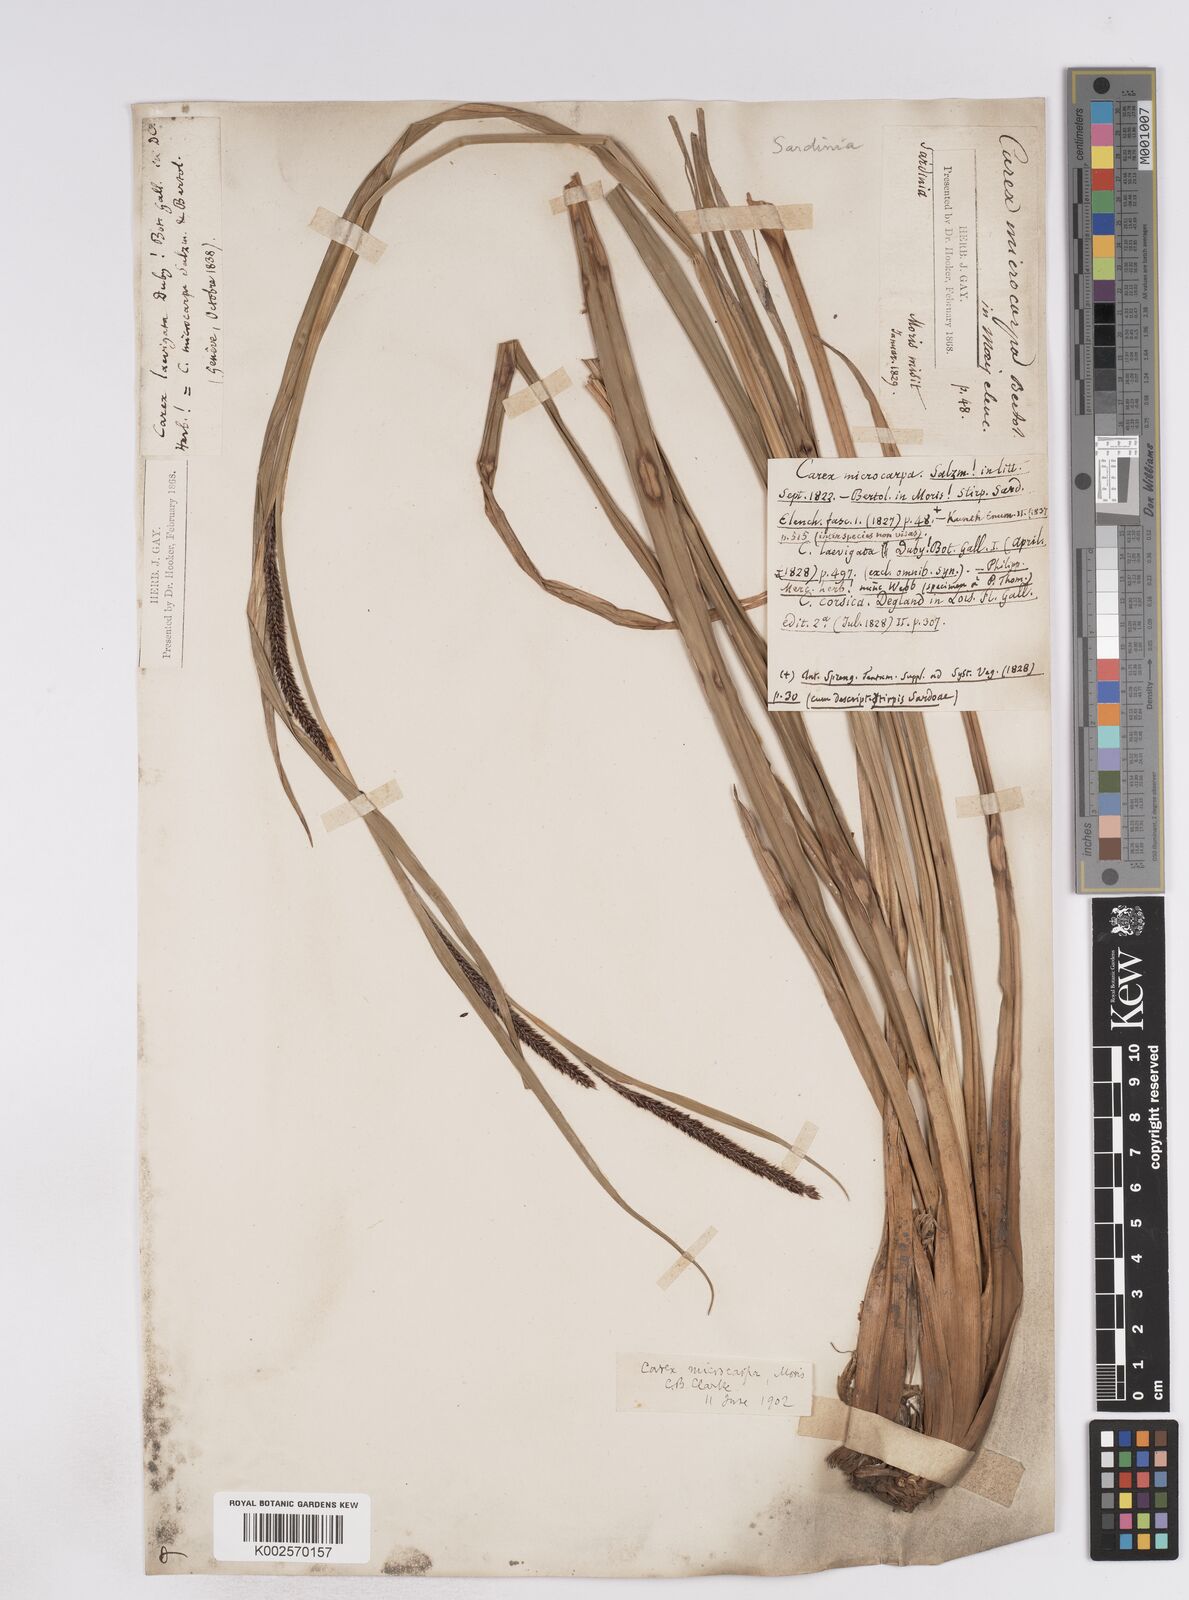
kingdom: Plantae
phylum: Tracheophyta
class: Liliopsida
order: Poales
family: Cyperaceae
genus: Carex
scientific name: Carex microcarpa
